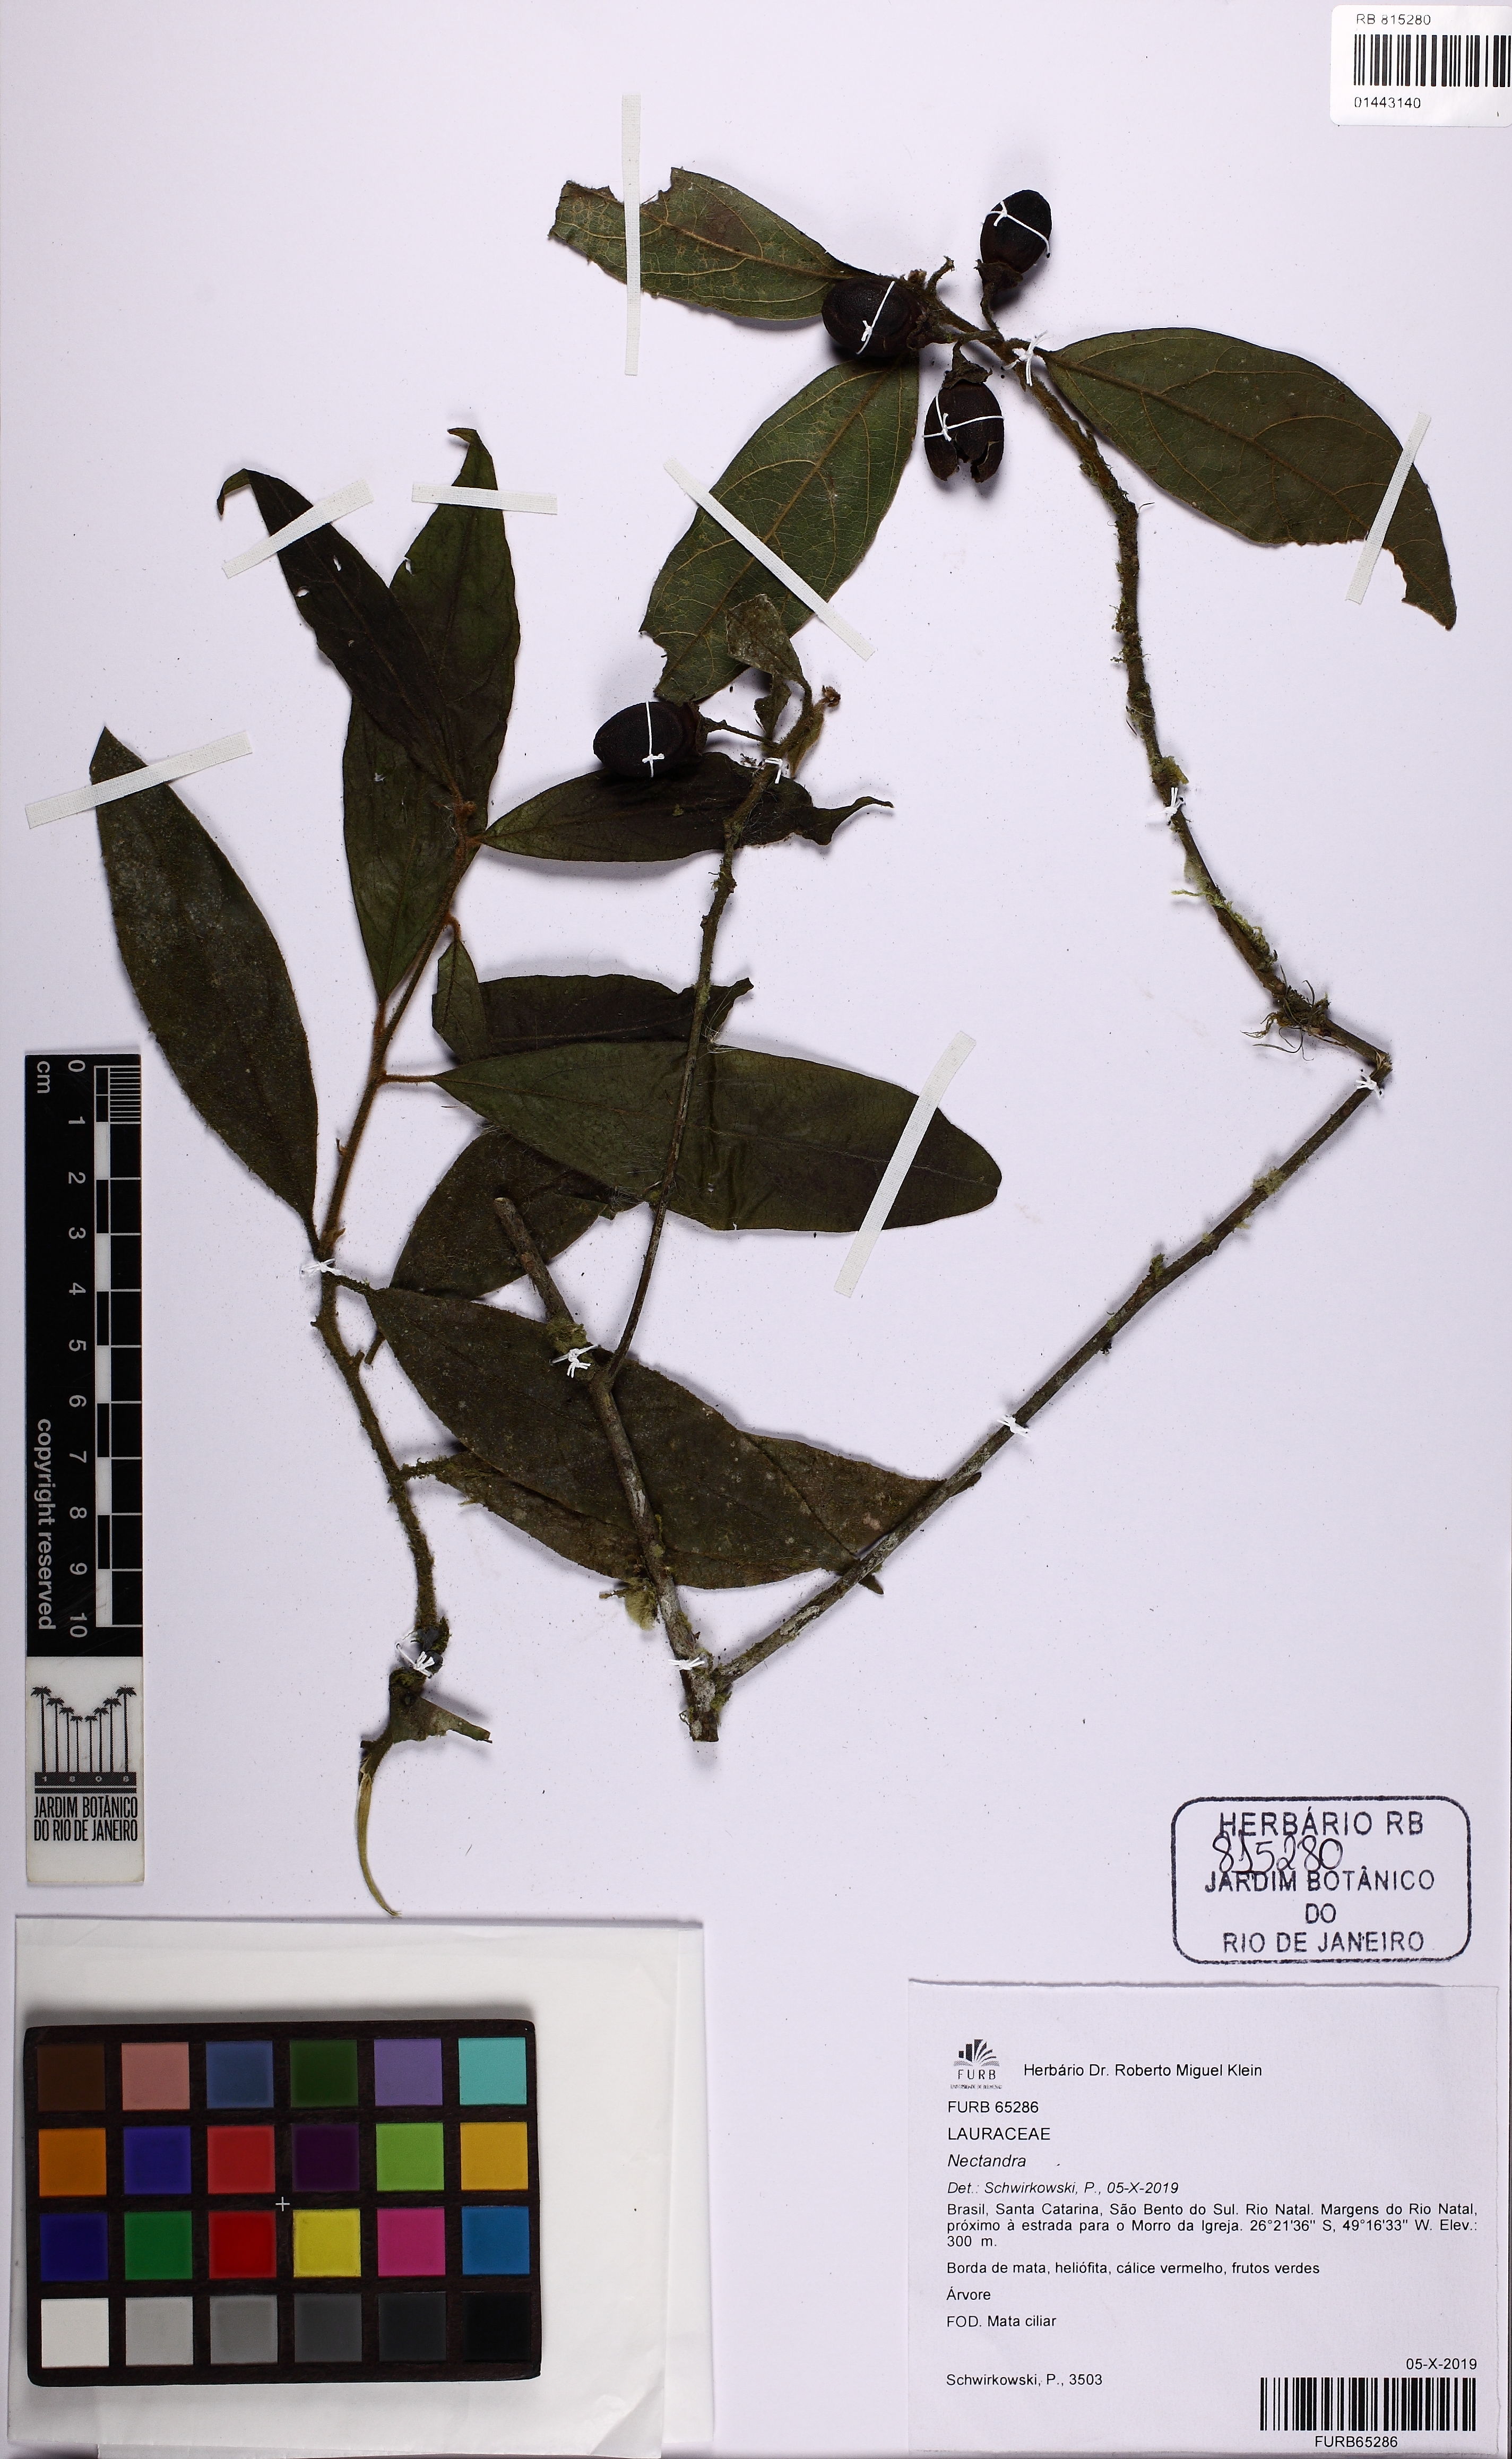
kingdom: Plantae
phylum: Tracheophyta
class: Magnoliopsida
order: Laurales
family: Lauraceae
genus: Nectandra
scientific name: Nectandra
